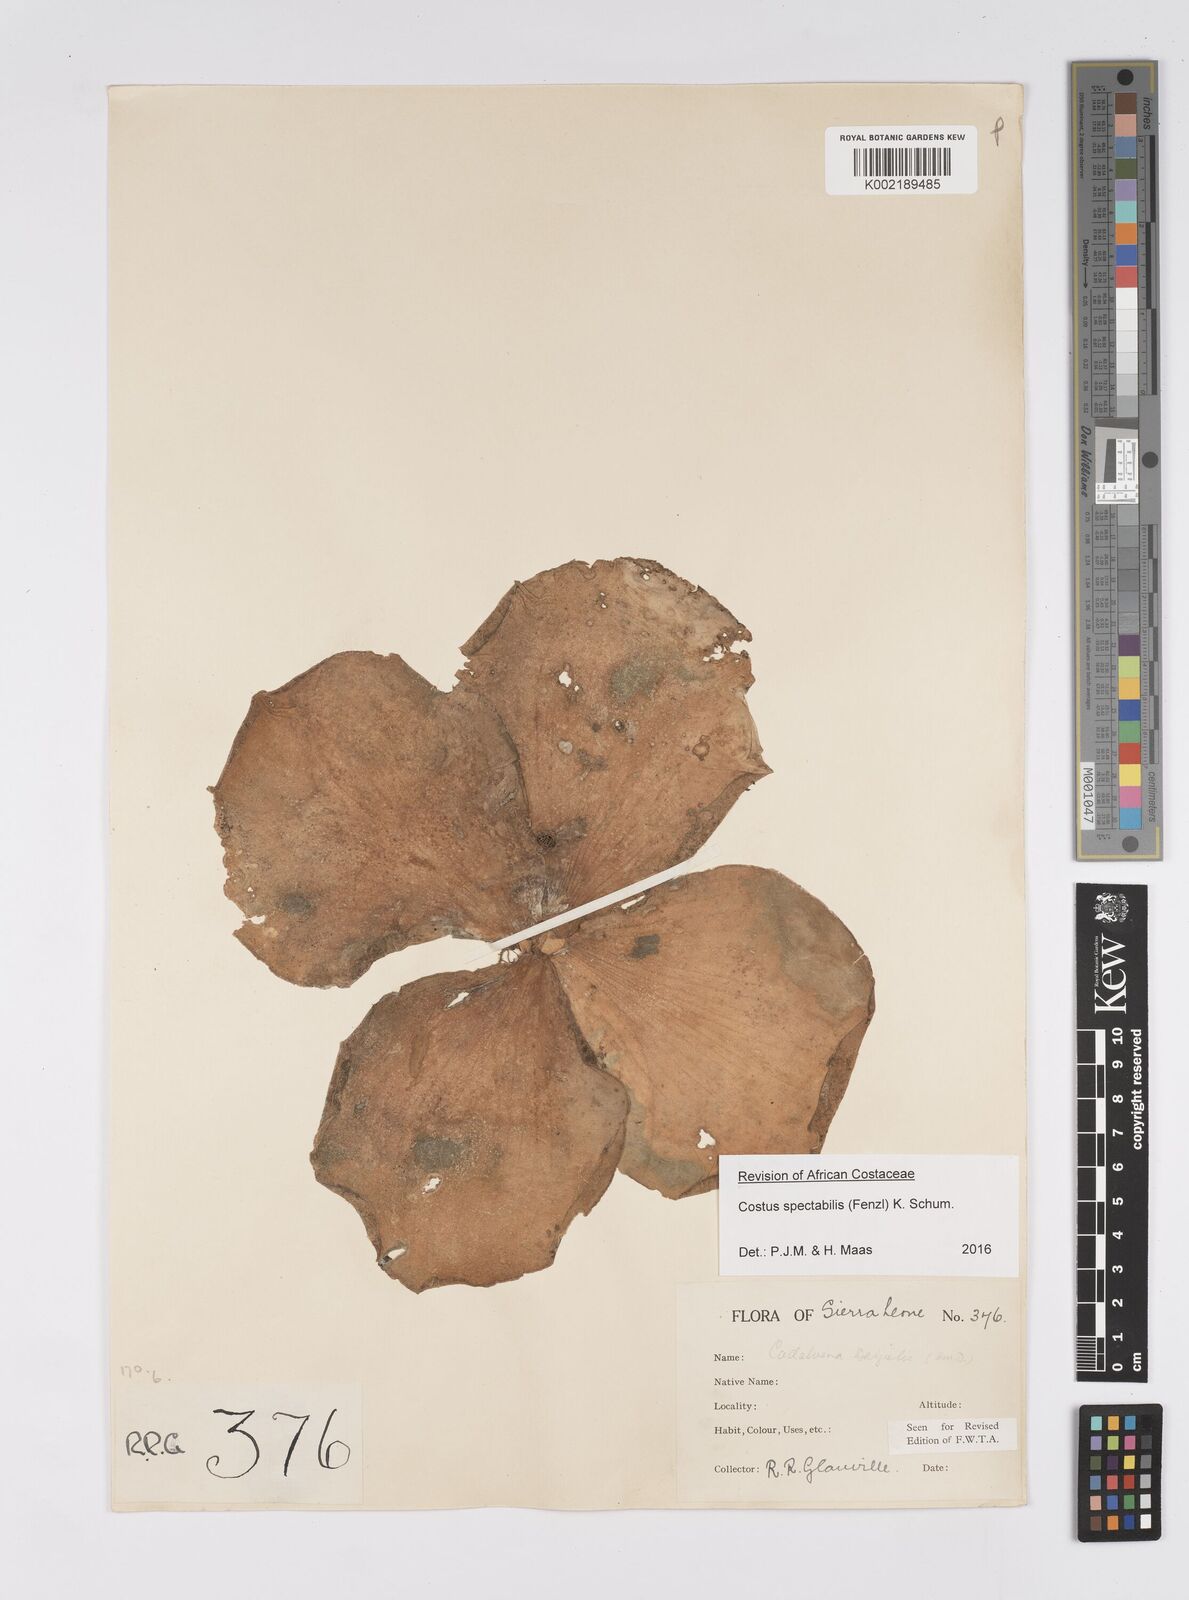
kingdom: Plantae
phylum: Tracheophyta
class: Liliopsida
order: Zingiberales
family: Costaceae
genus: Costus
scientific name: Costus spectabilis
